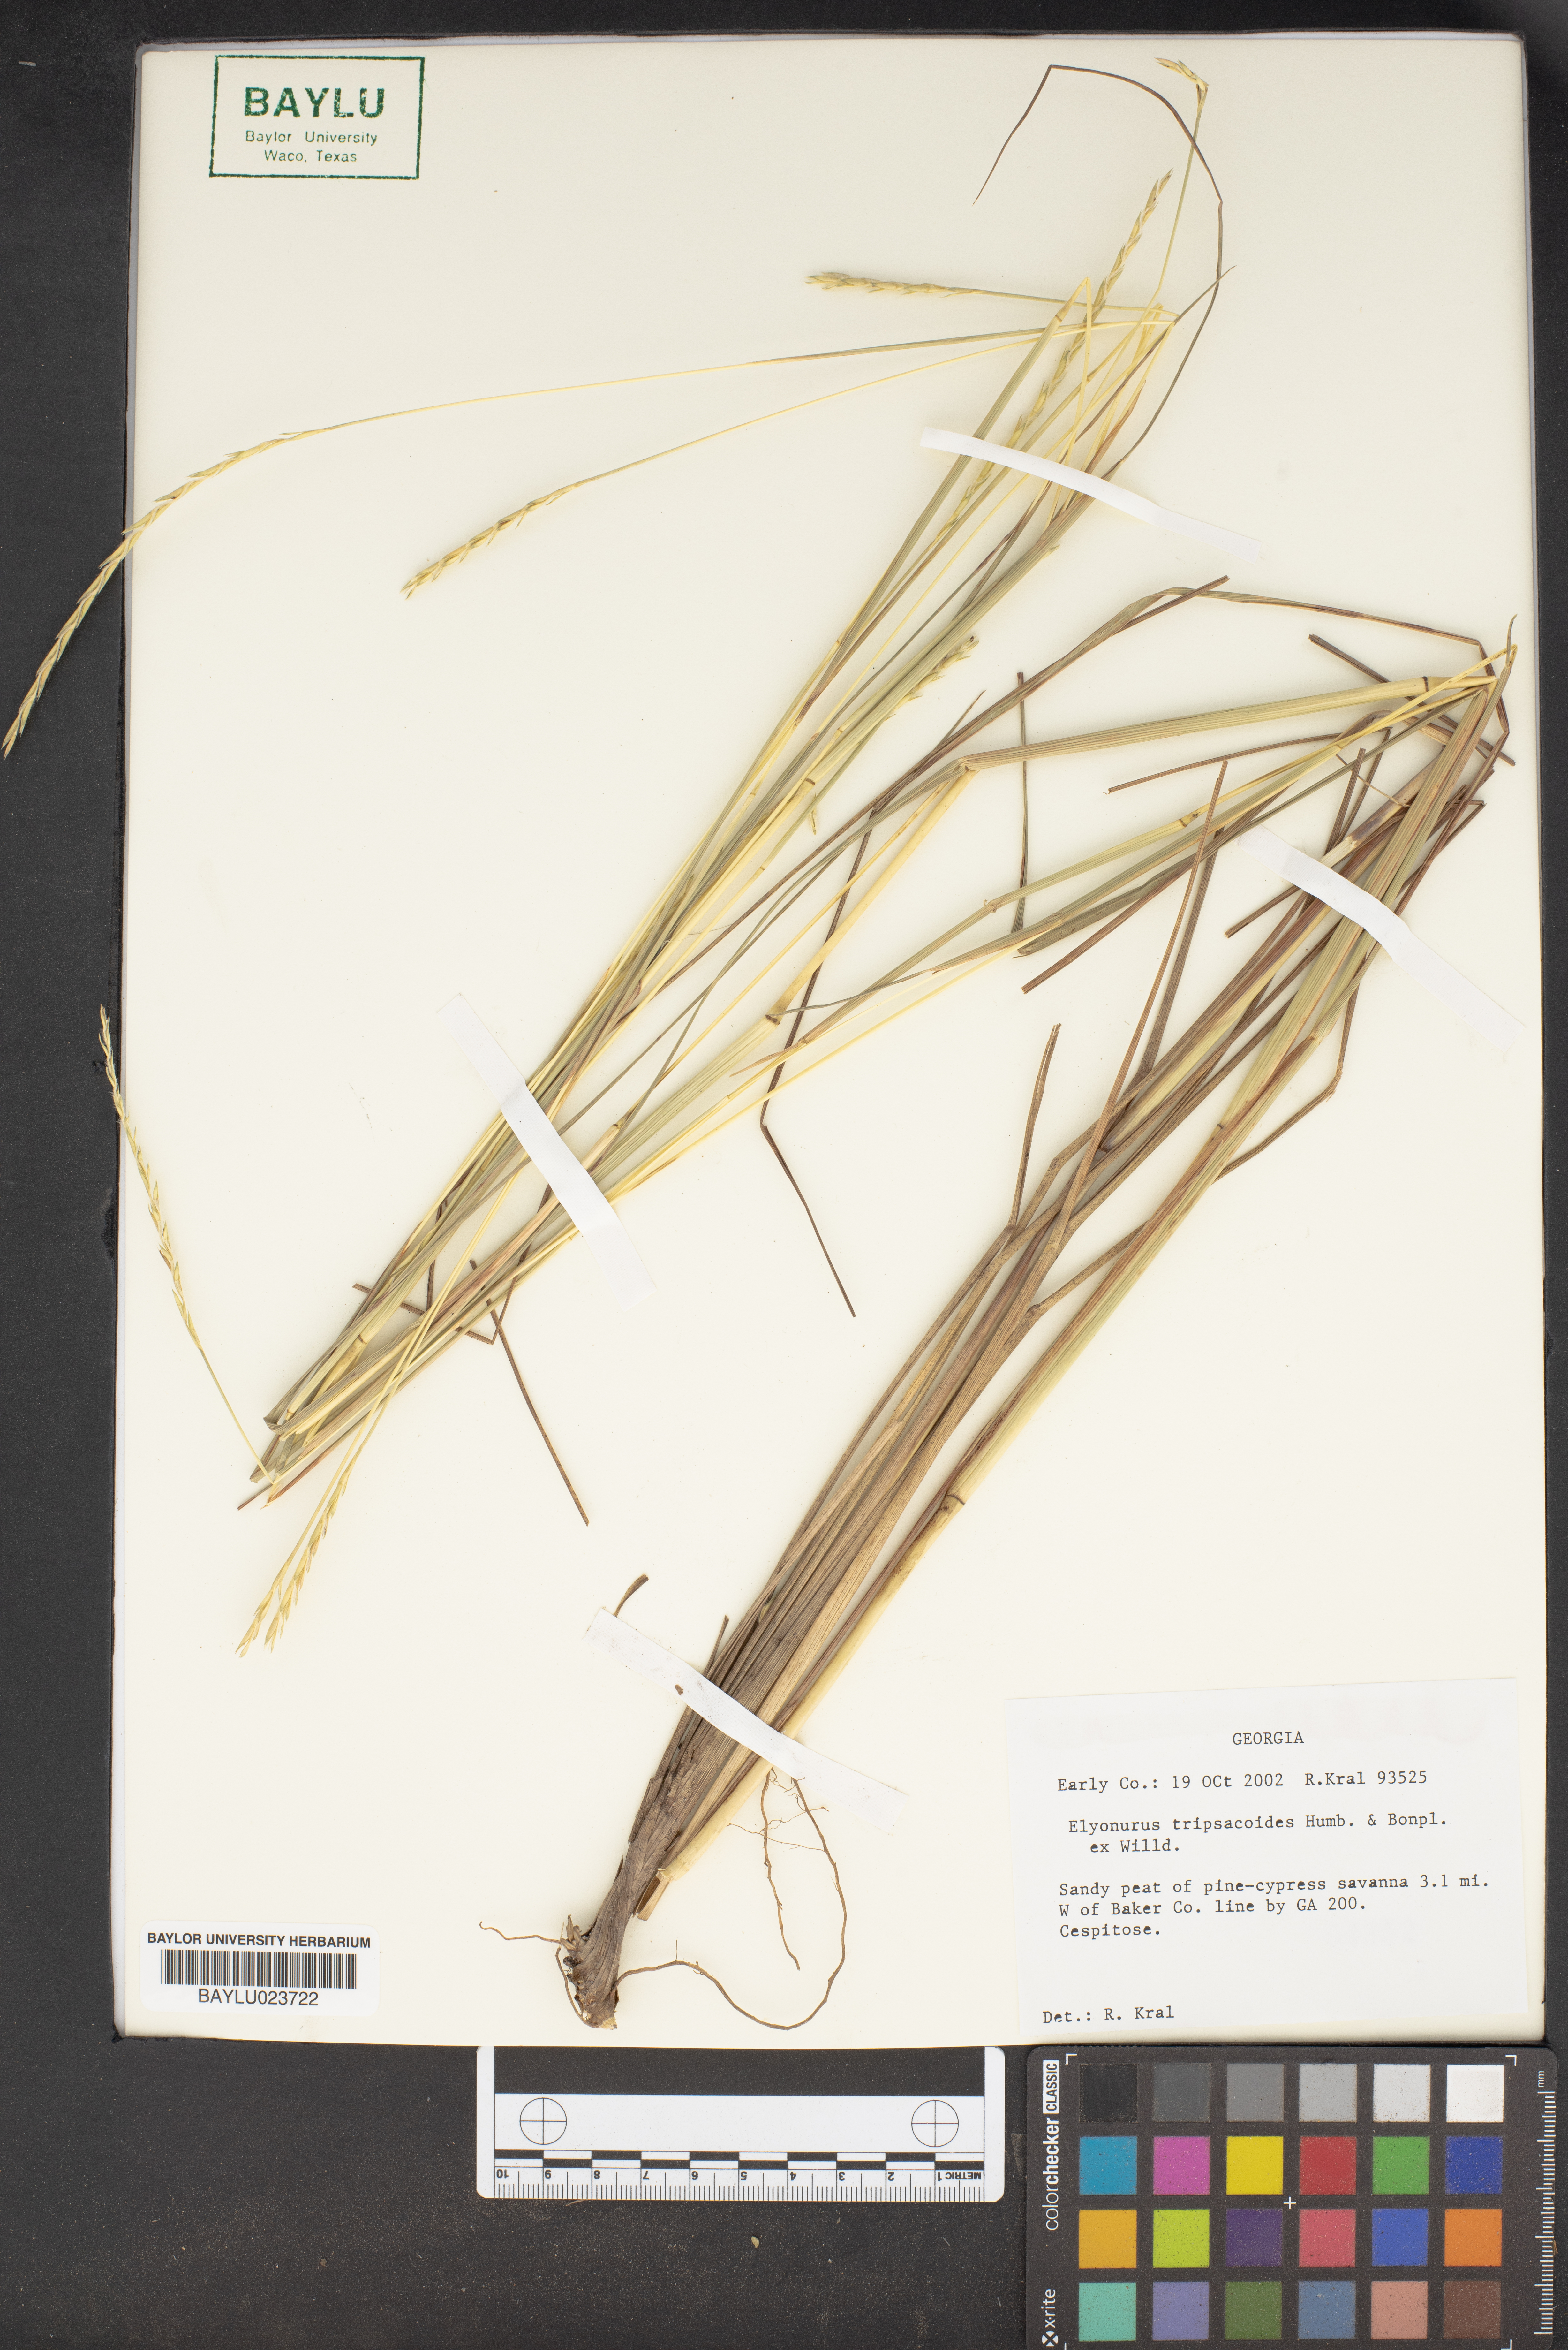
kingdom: Plantae
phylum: Tracheophyta
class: Liliopsida
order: Poales
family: Poaceae
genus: Elionurus
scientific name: Elionurus tripsacoides
